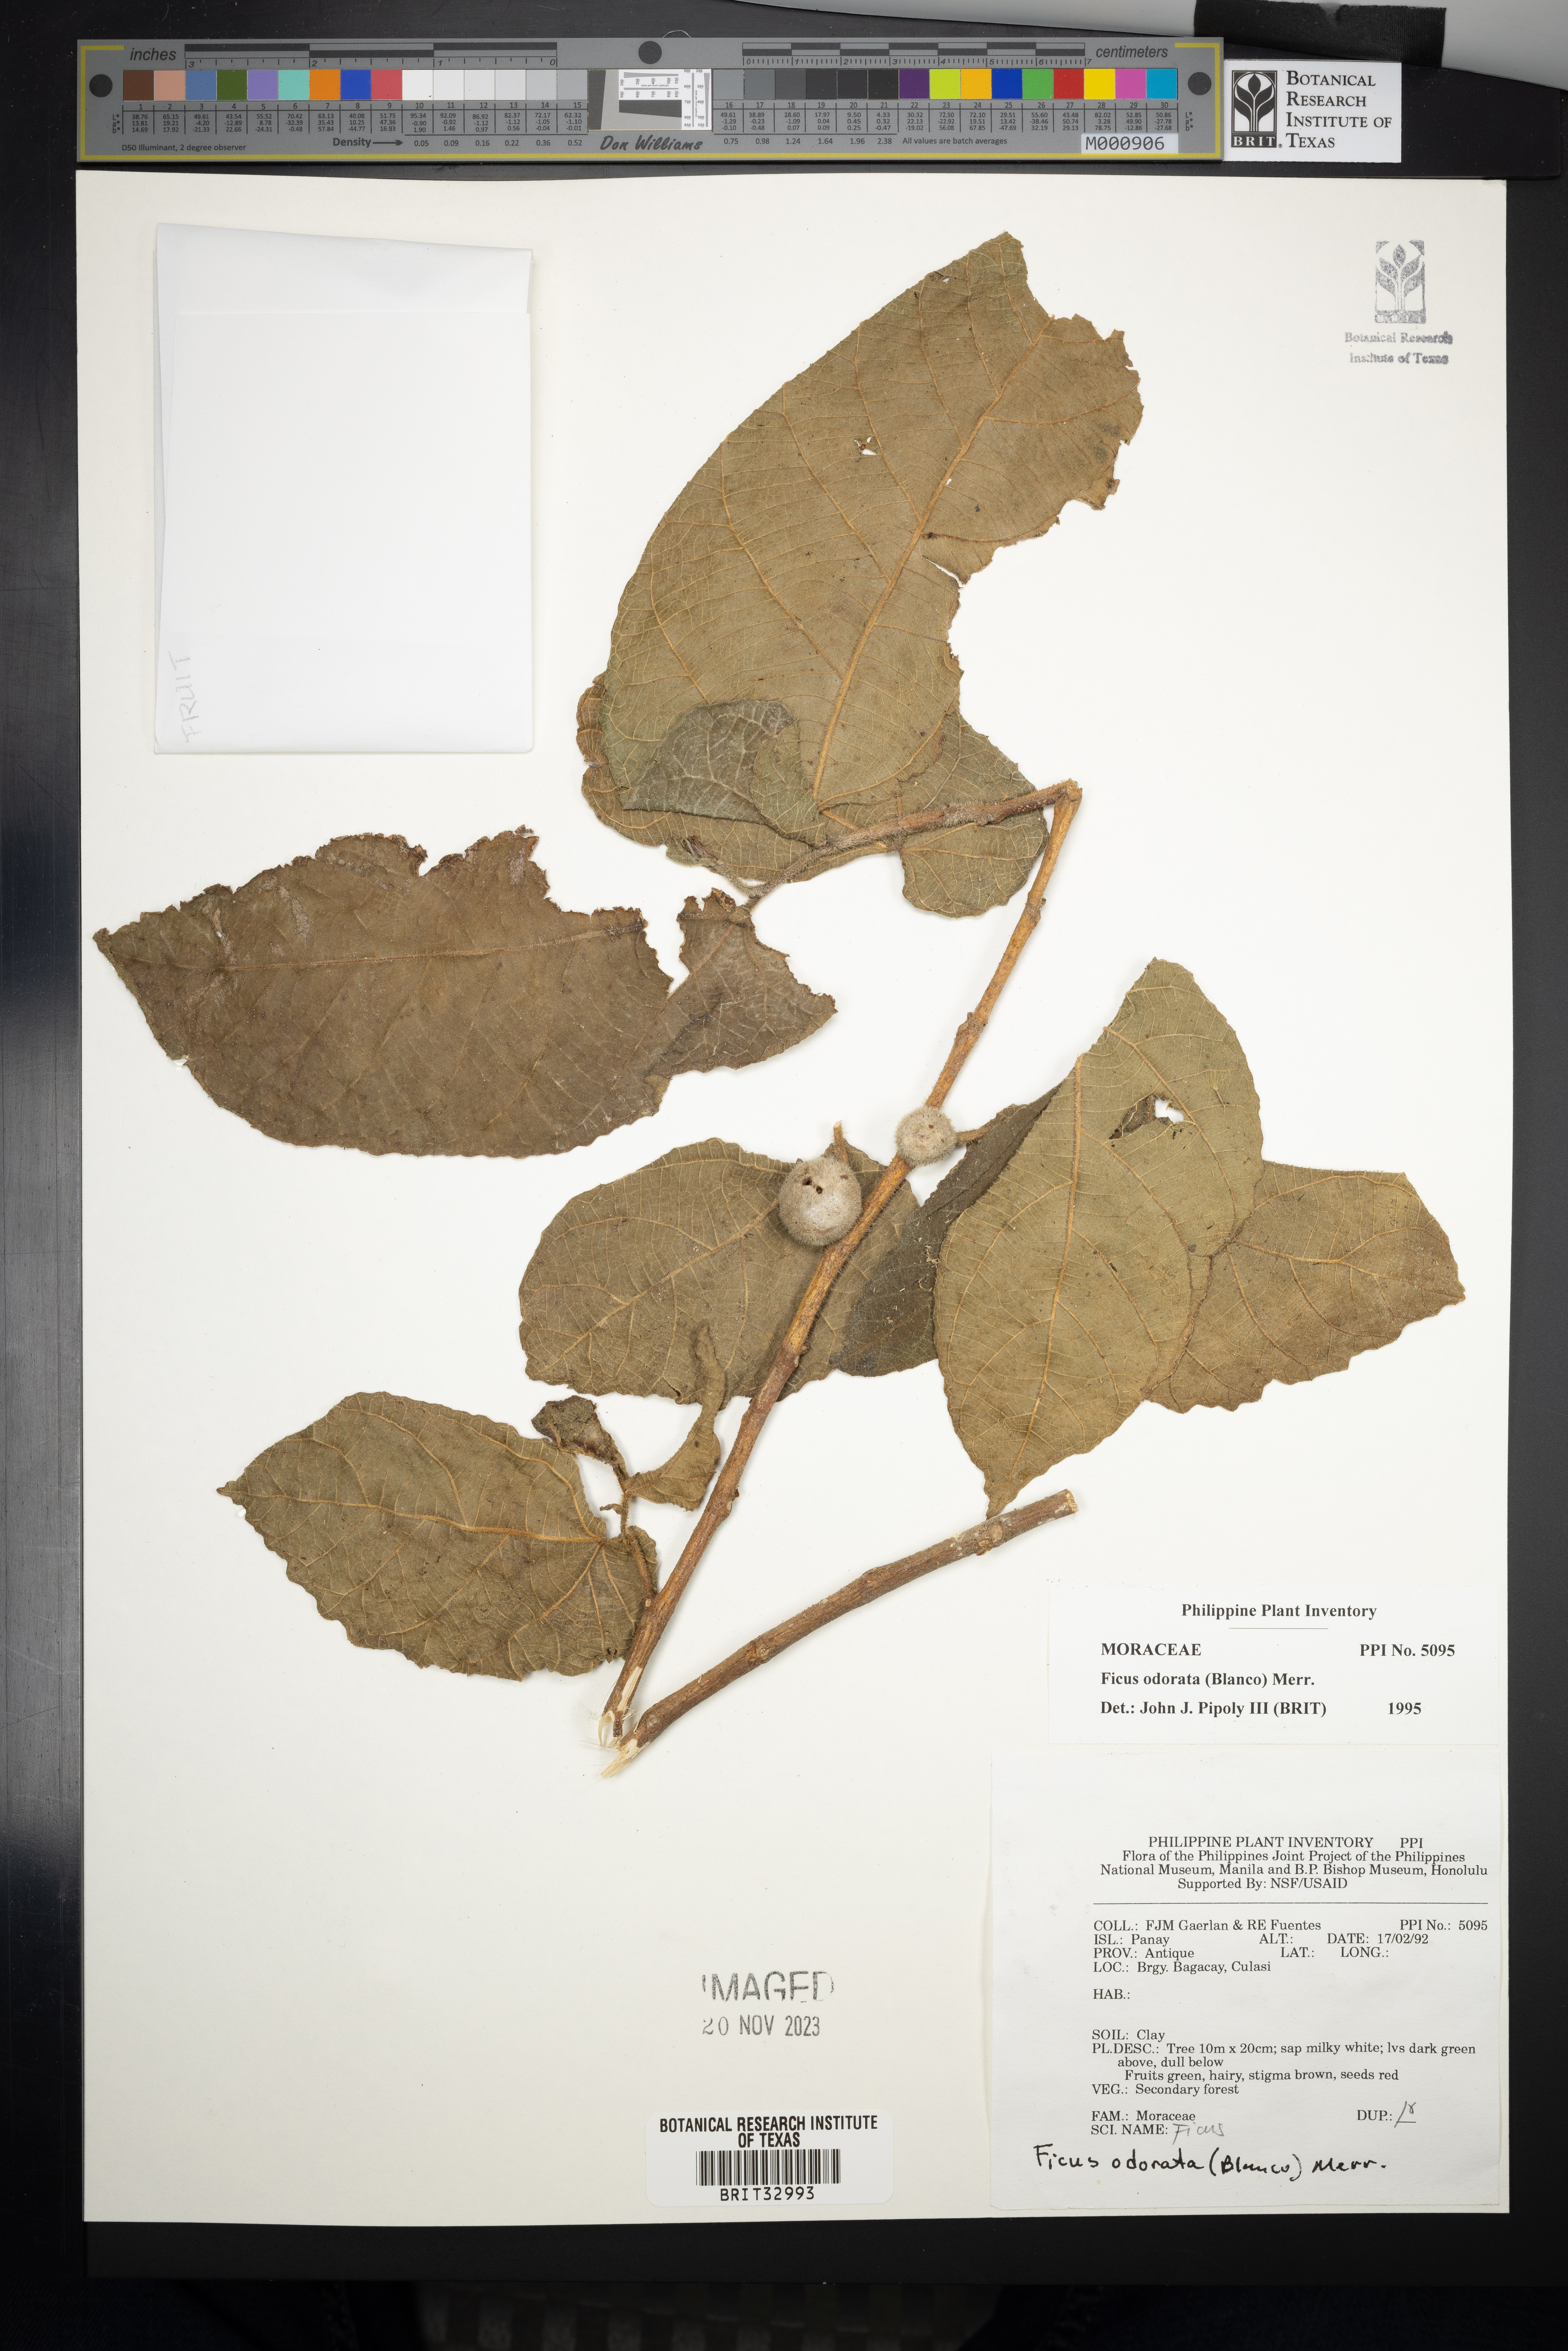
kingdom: Plantae
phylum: Tracheophyta
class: Magnoliopsida
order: Rosales
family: Moraceae
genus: Ficus
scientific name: Ficus odorata
